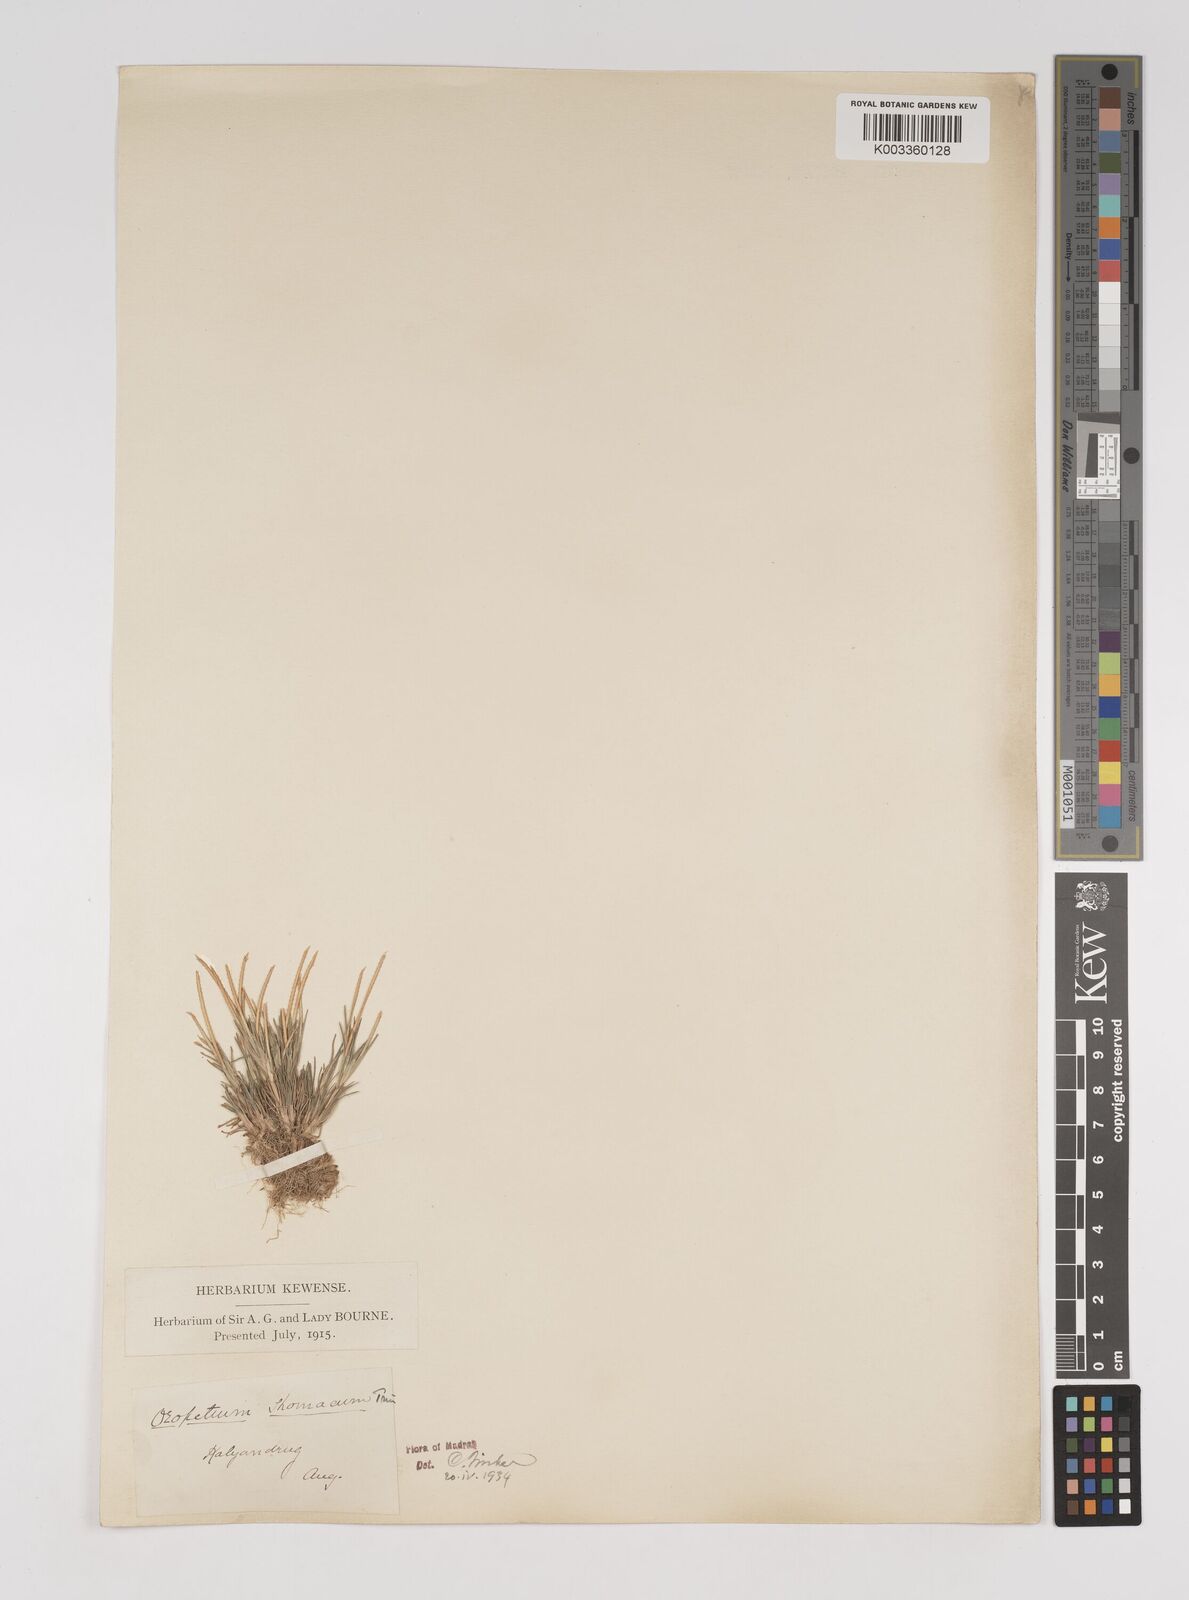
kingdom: Plantae
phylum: Tracheophyta
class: Liliopsida
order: Poales
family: Poaceae
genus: Oropetium
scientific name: Oropetium thomaeum
